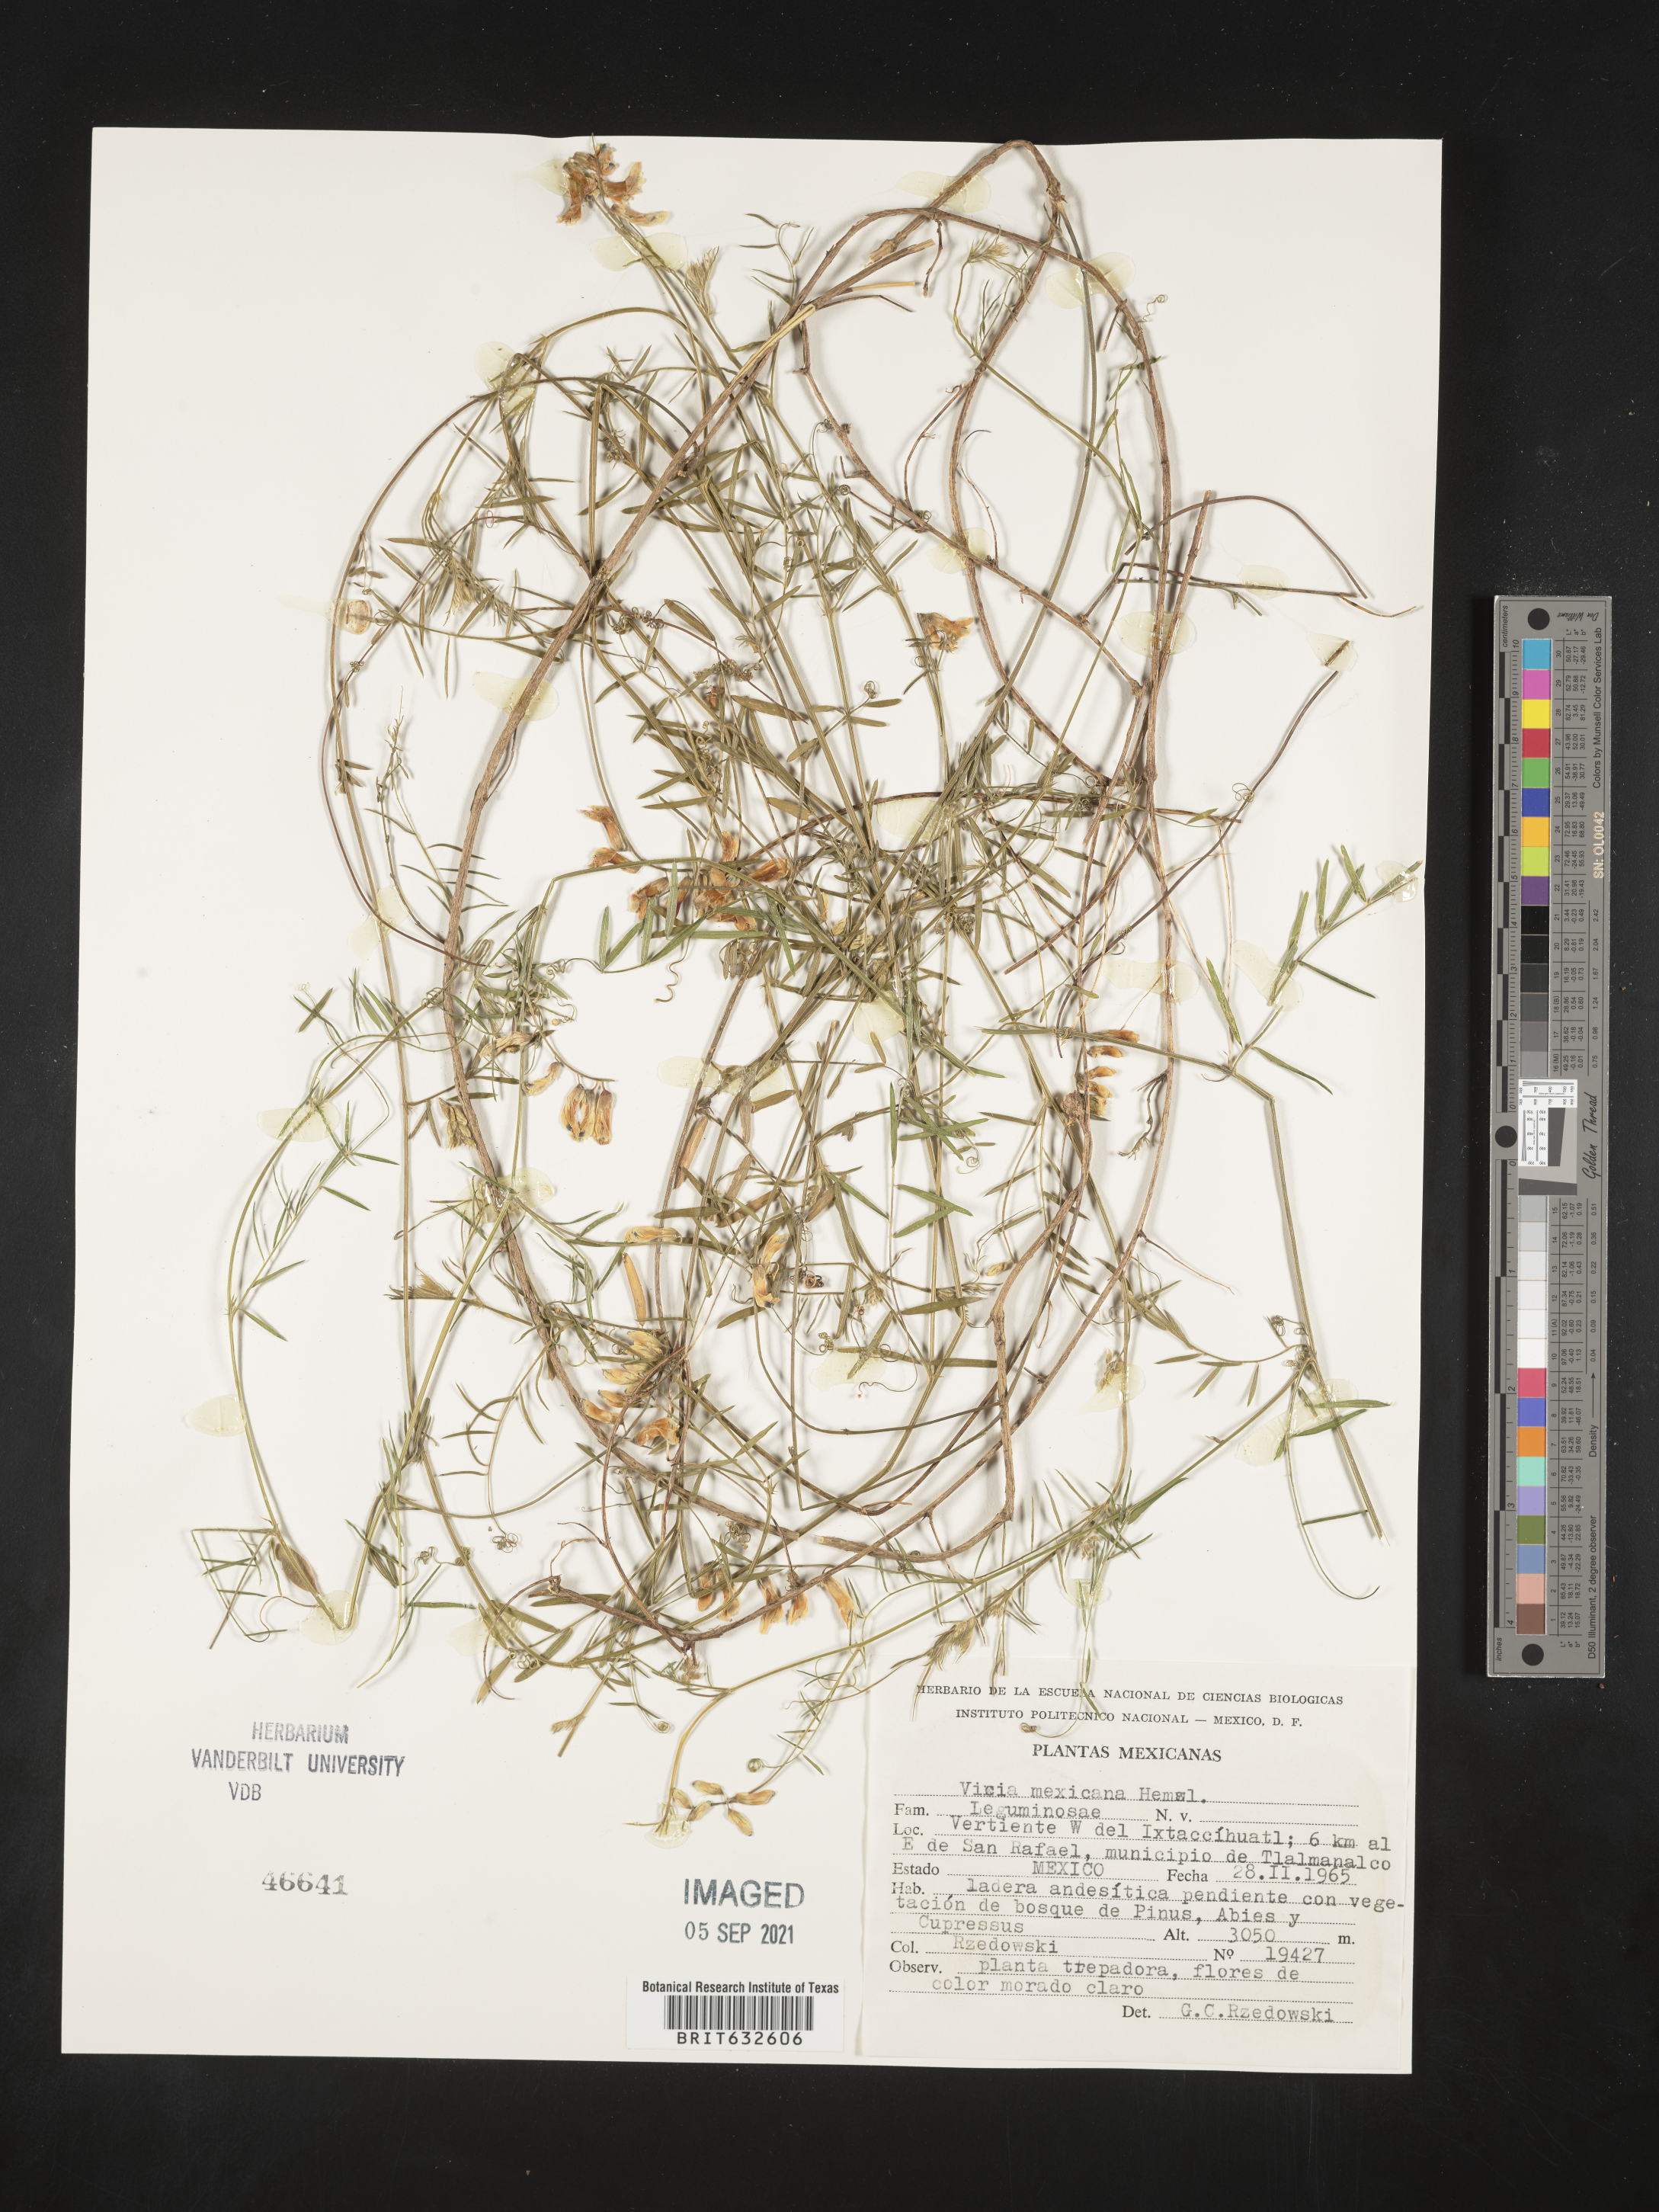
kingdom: Plantae
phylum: Tracheophyta
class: Magnoliopsida
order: Fabales
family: Fabaceae
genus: Vicia
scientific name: Vicia
